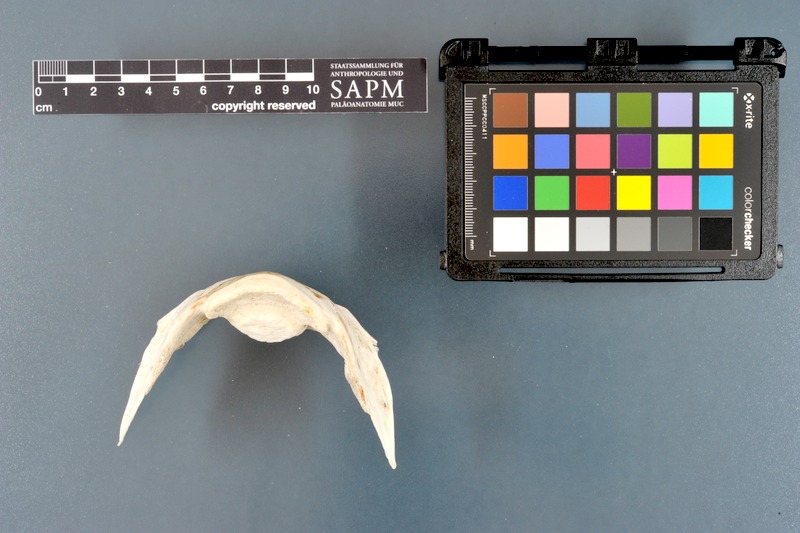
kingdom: Animalia
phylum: Chordata
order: Tetraodontiformes
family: Diodontidae
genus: Diodon
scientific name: Diodon holocanthus
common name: Balloonfish
